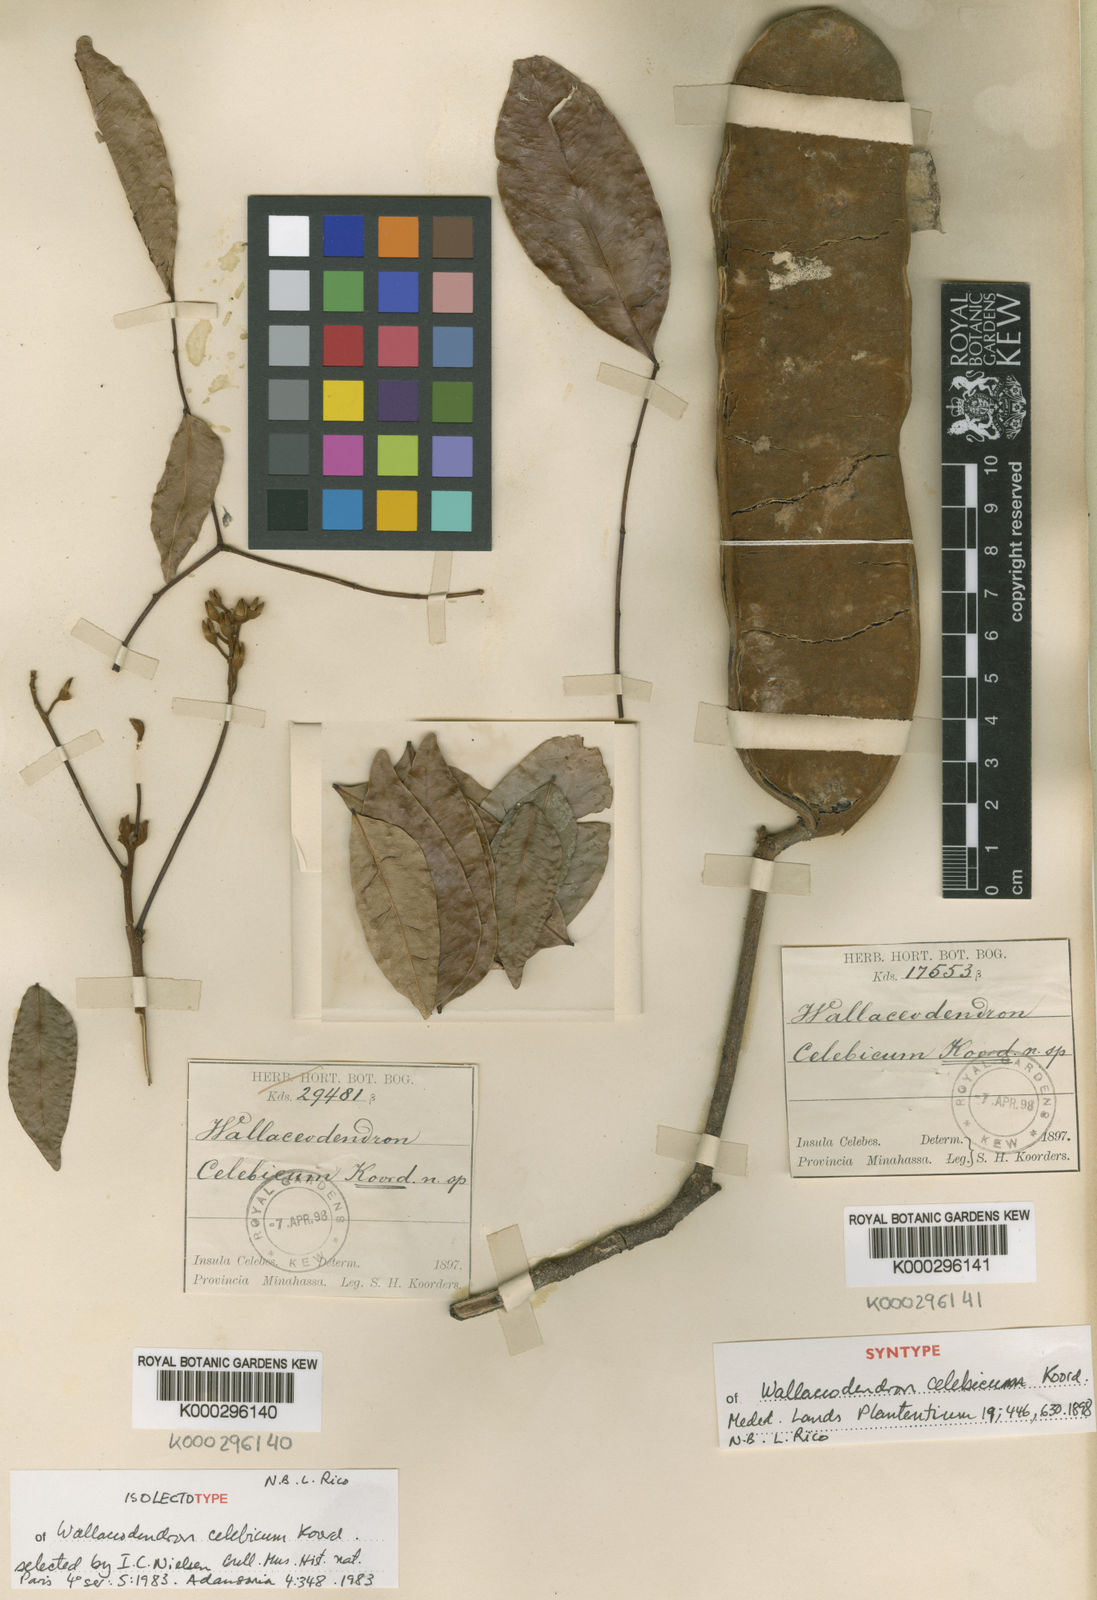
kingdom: Plantae
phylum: Tracheophyta
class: Magnoliopsida
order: Fabales
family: Fabaceae
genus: Wallaceodendron
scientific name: Wallaceodendron celebicum
